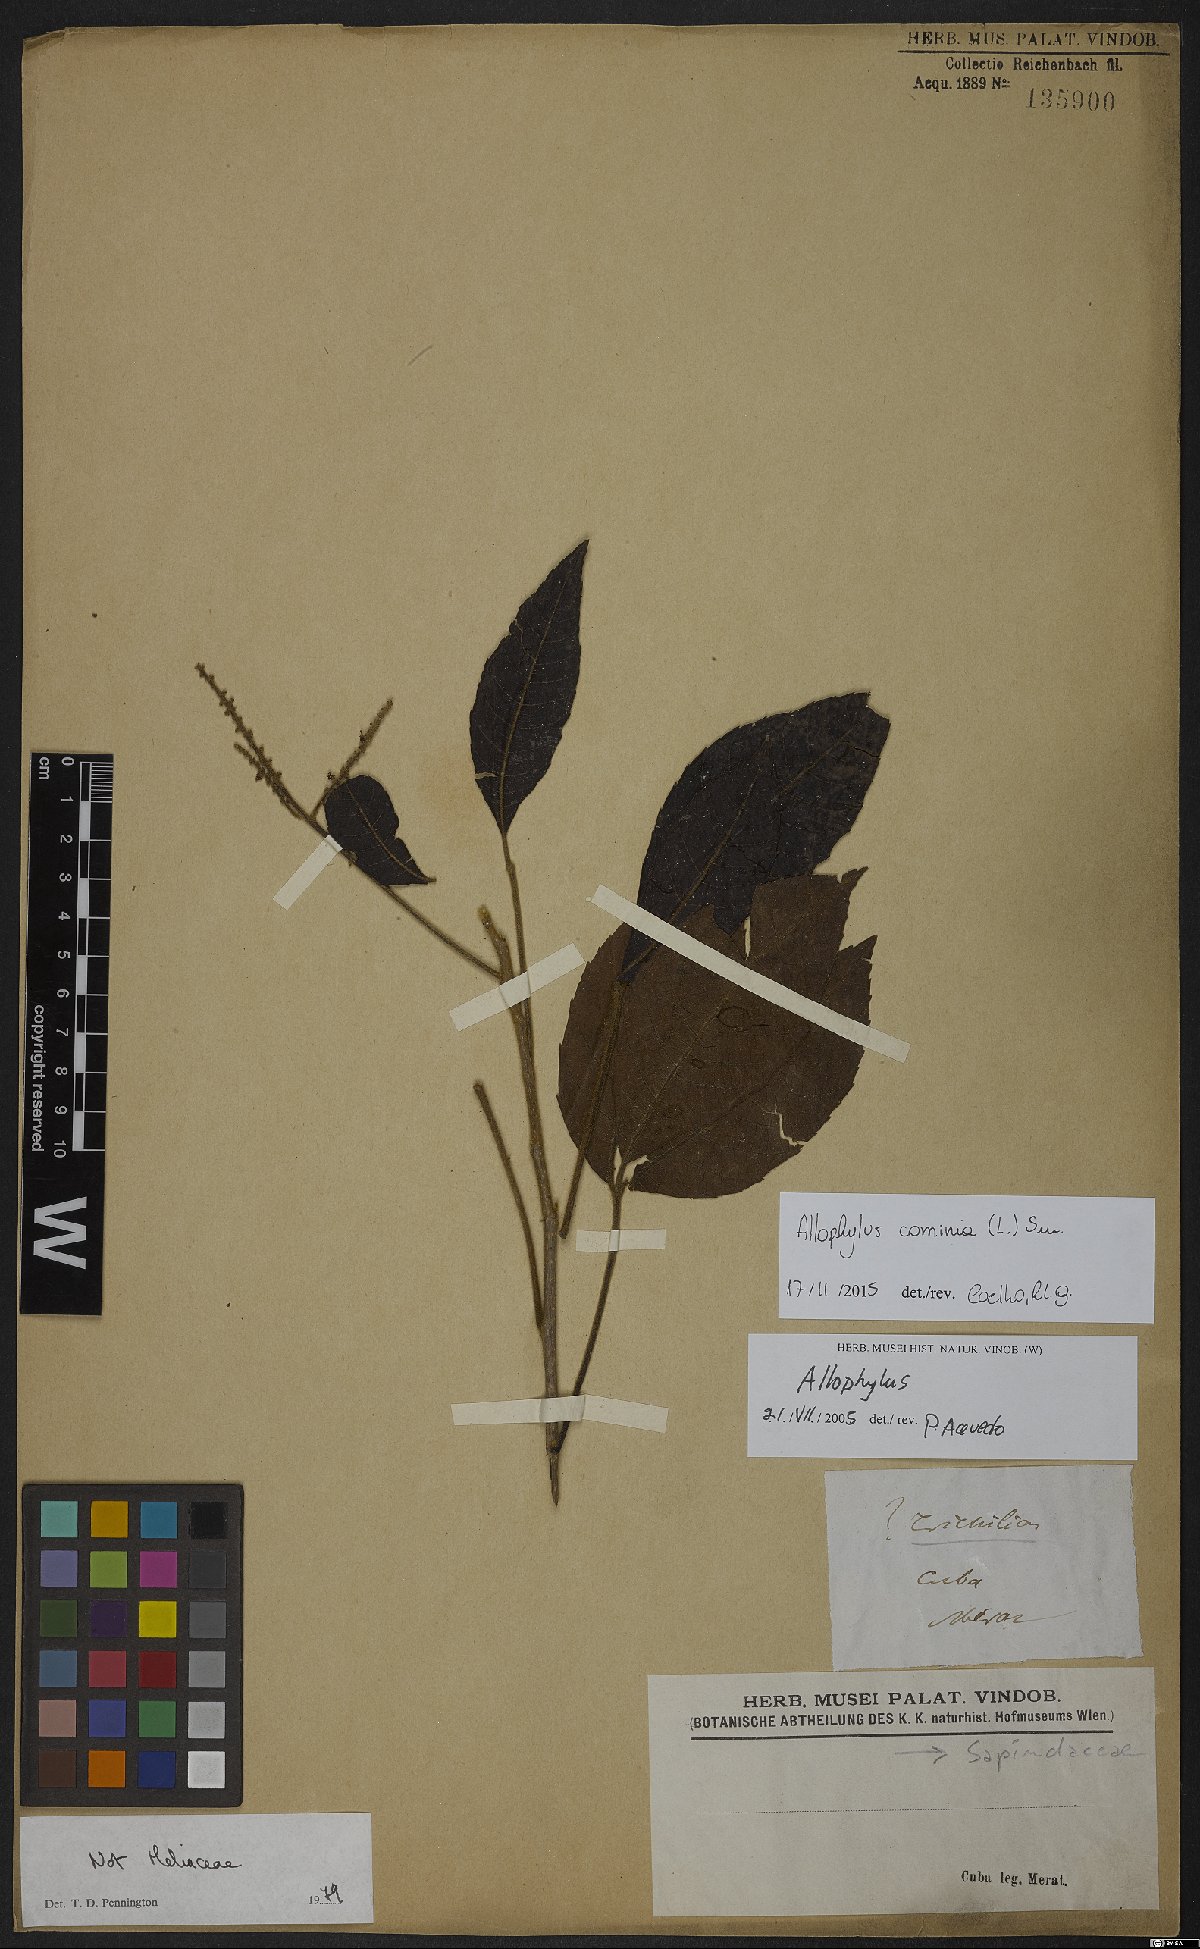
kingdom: Plantae
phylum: Tracheophyta
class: Magnoliopsida
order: Sapindales
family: Sapindaceae
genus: Allophylus
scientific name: Allophylus cominia
